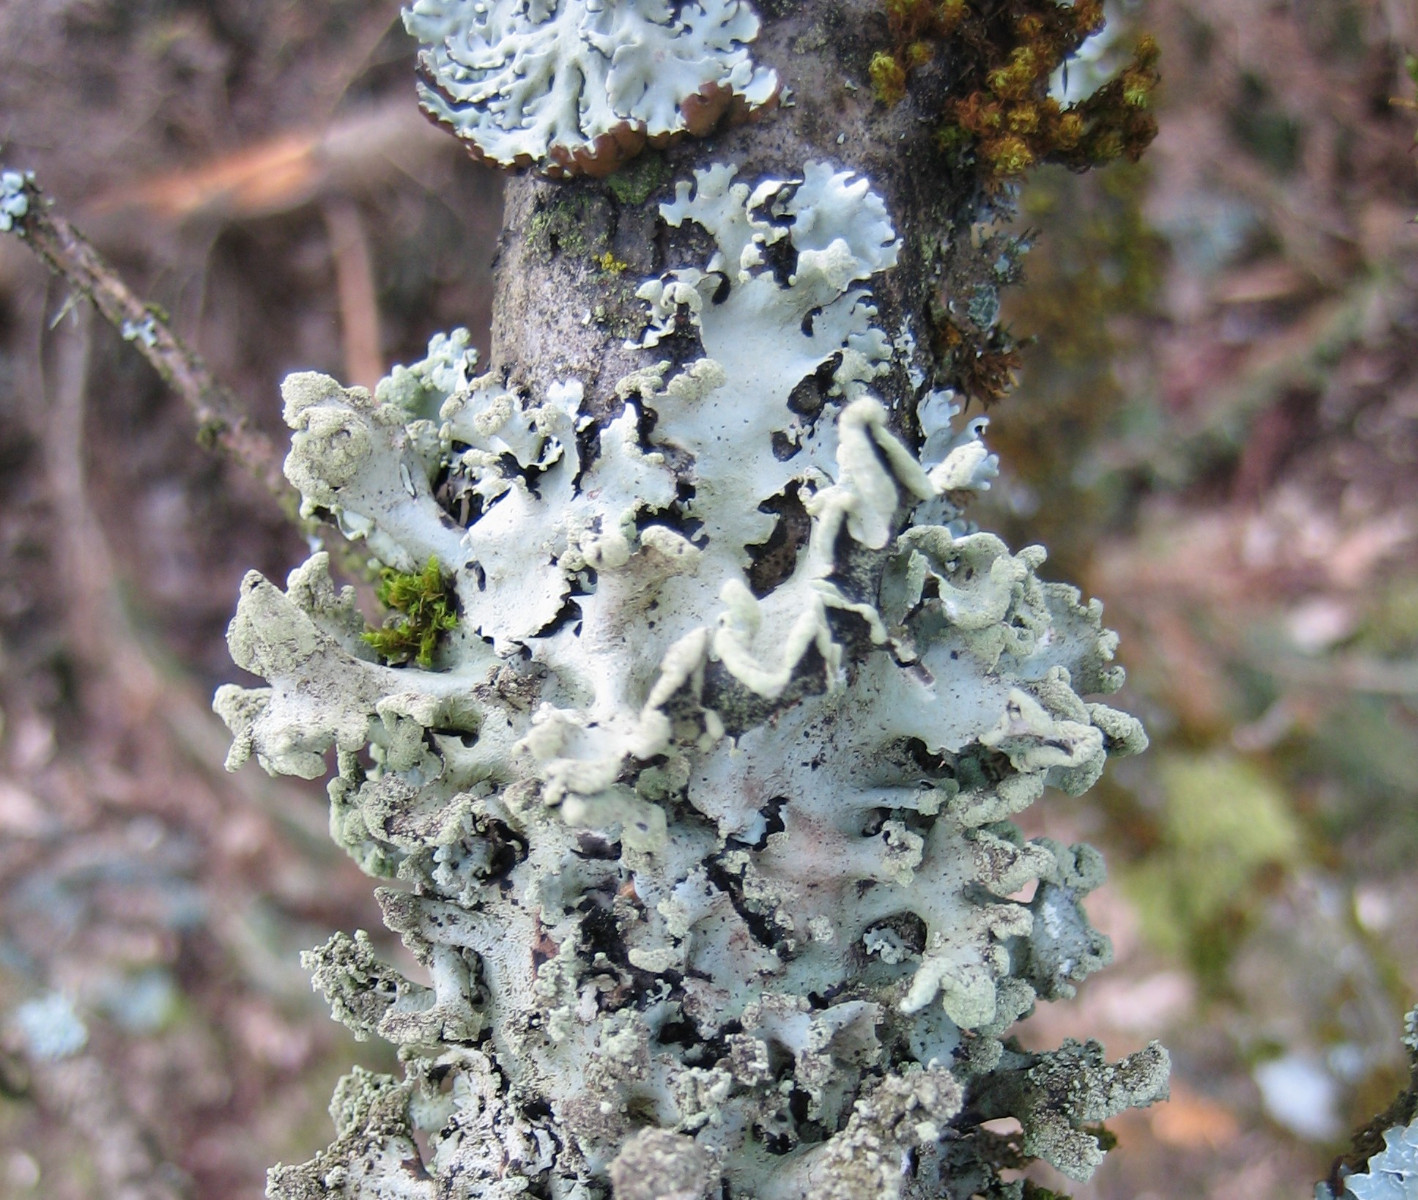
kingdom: Fungi
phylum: Ascomycota
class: Lecanoromycetes
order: Lecanorales
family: Parmeliaceae
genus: Hypotrachyna
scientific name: Hypotrachyna revoluta
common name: bleggrå skållav
